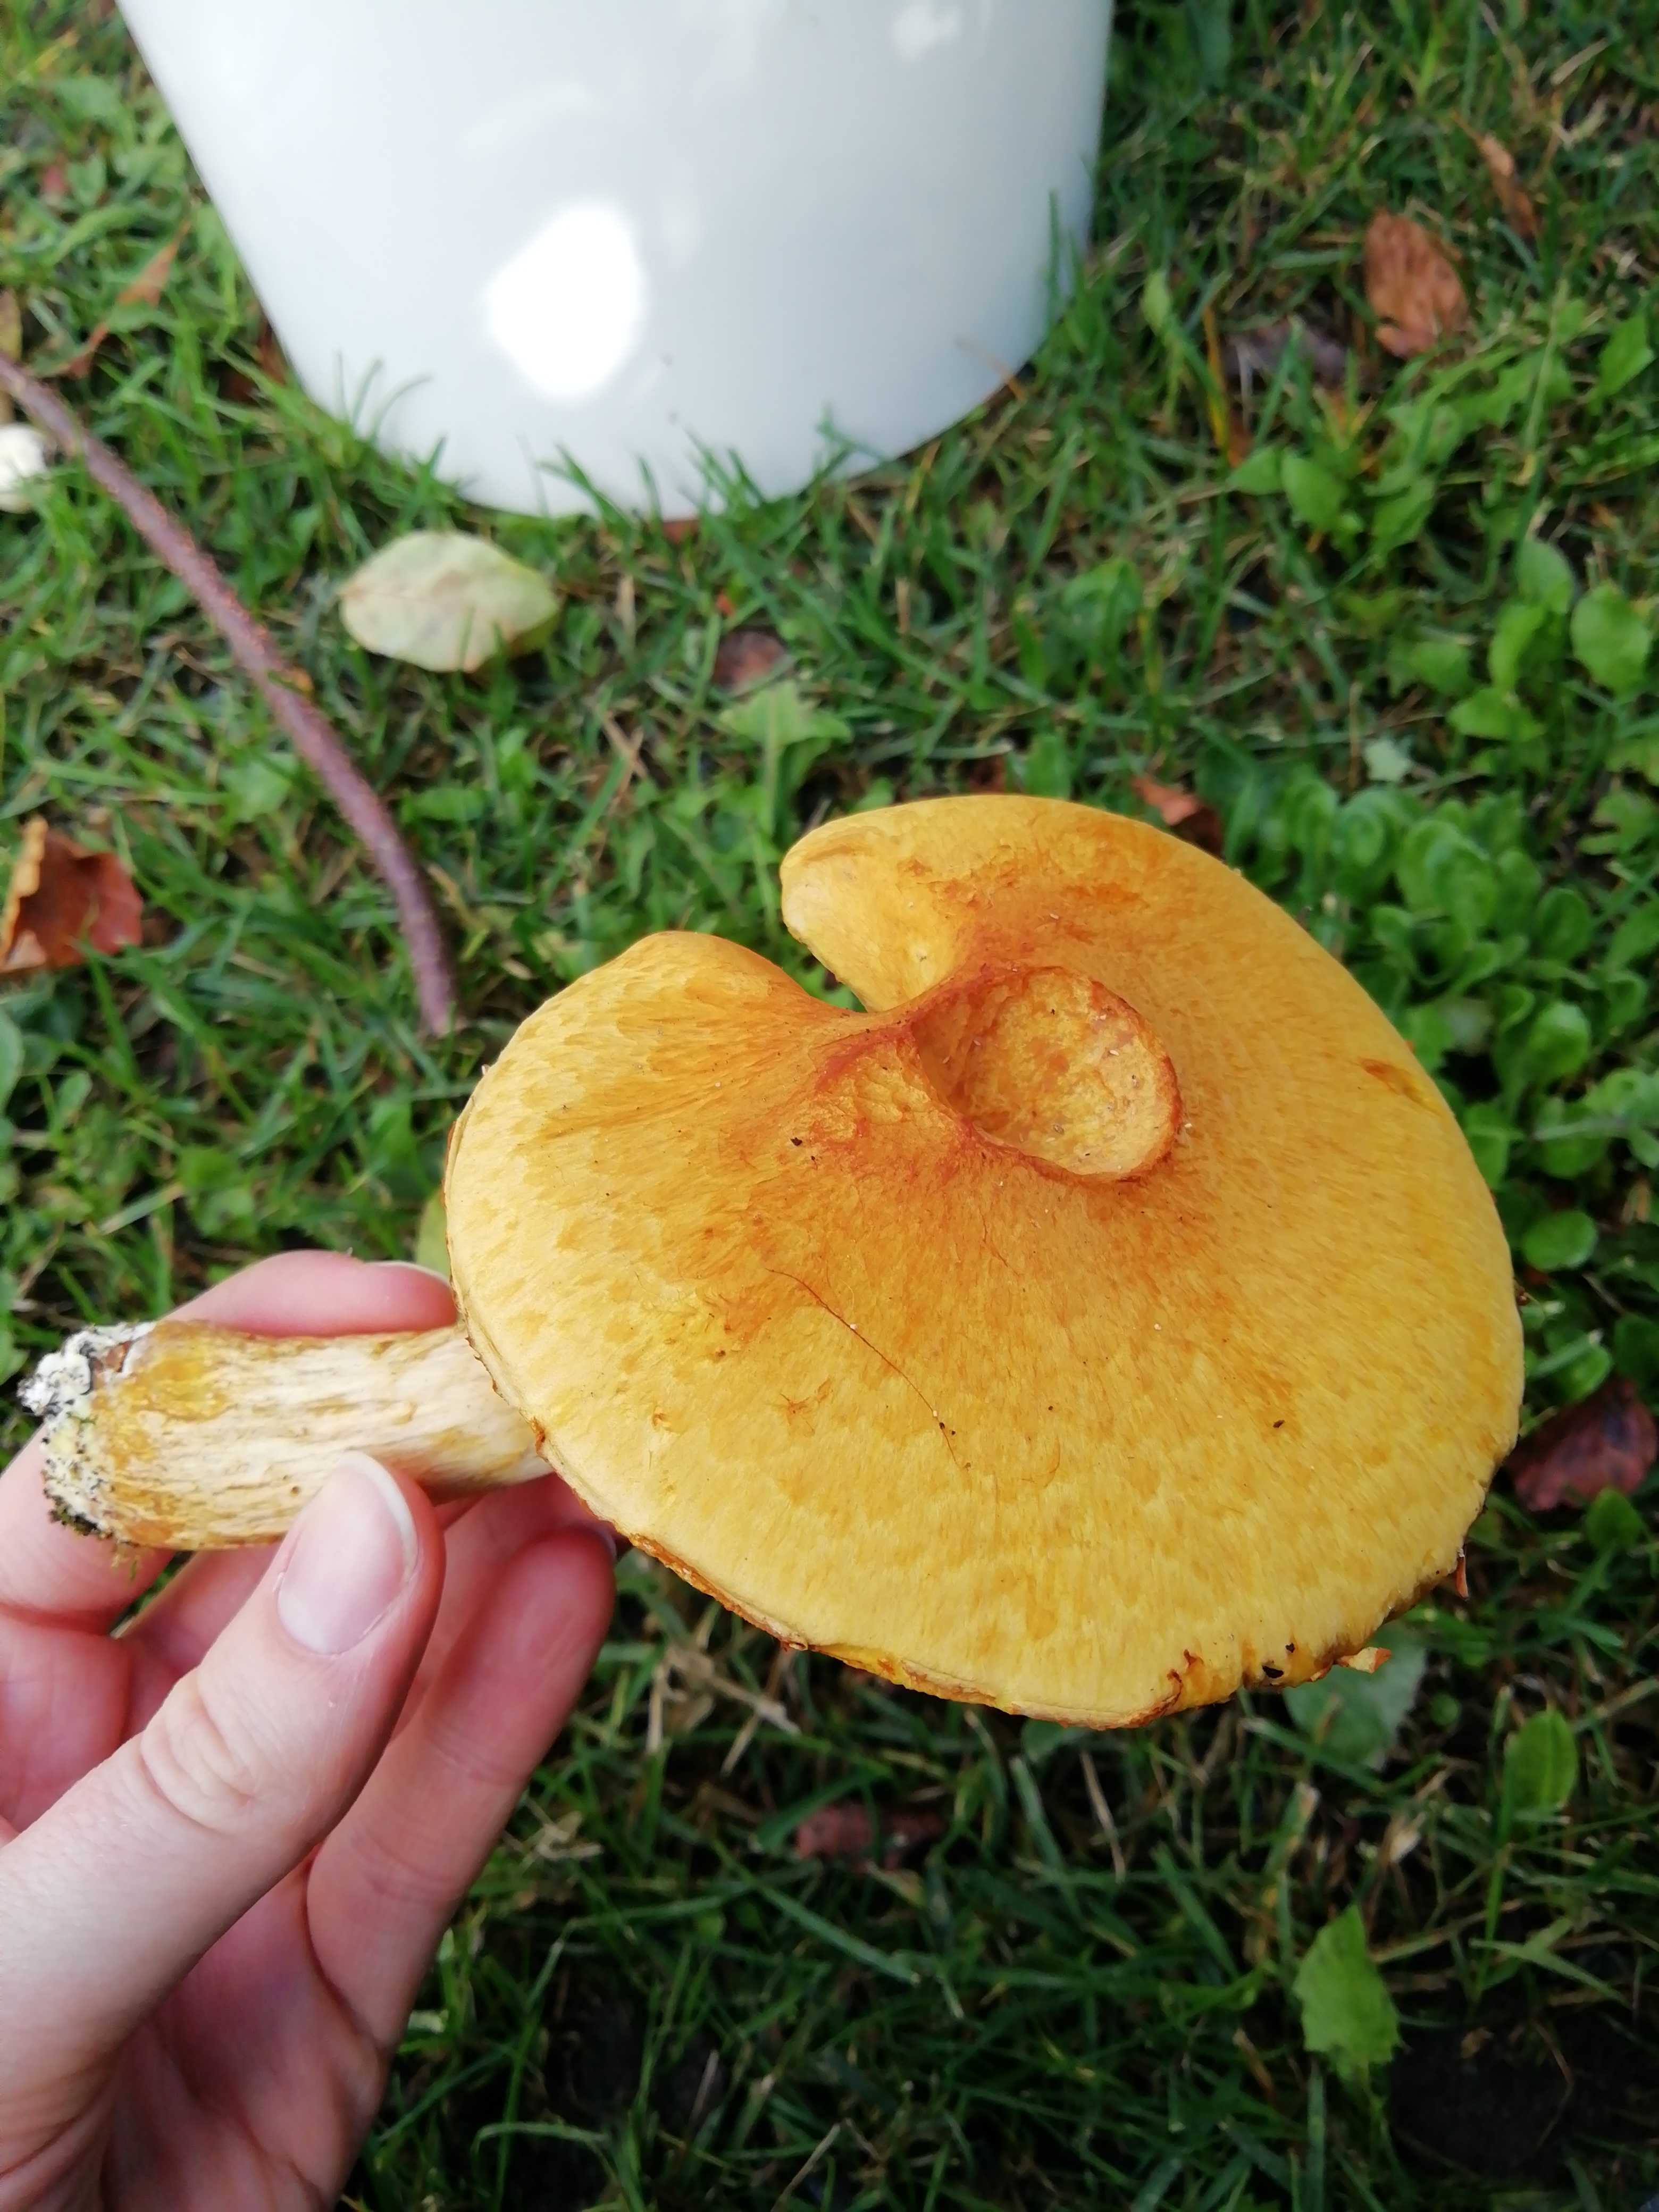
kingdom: Fungi
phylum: Basidiomycota
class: Agaricomycetes
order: Agaricales
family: Hymenogastraceae
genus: Gymnopilus
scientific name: Gymnopilus spectabilis
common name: fibret flammehat
